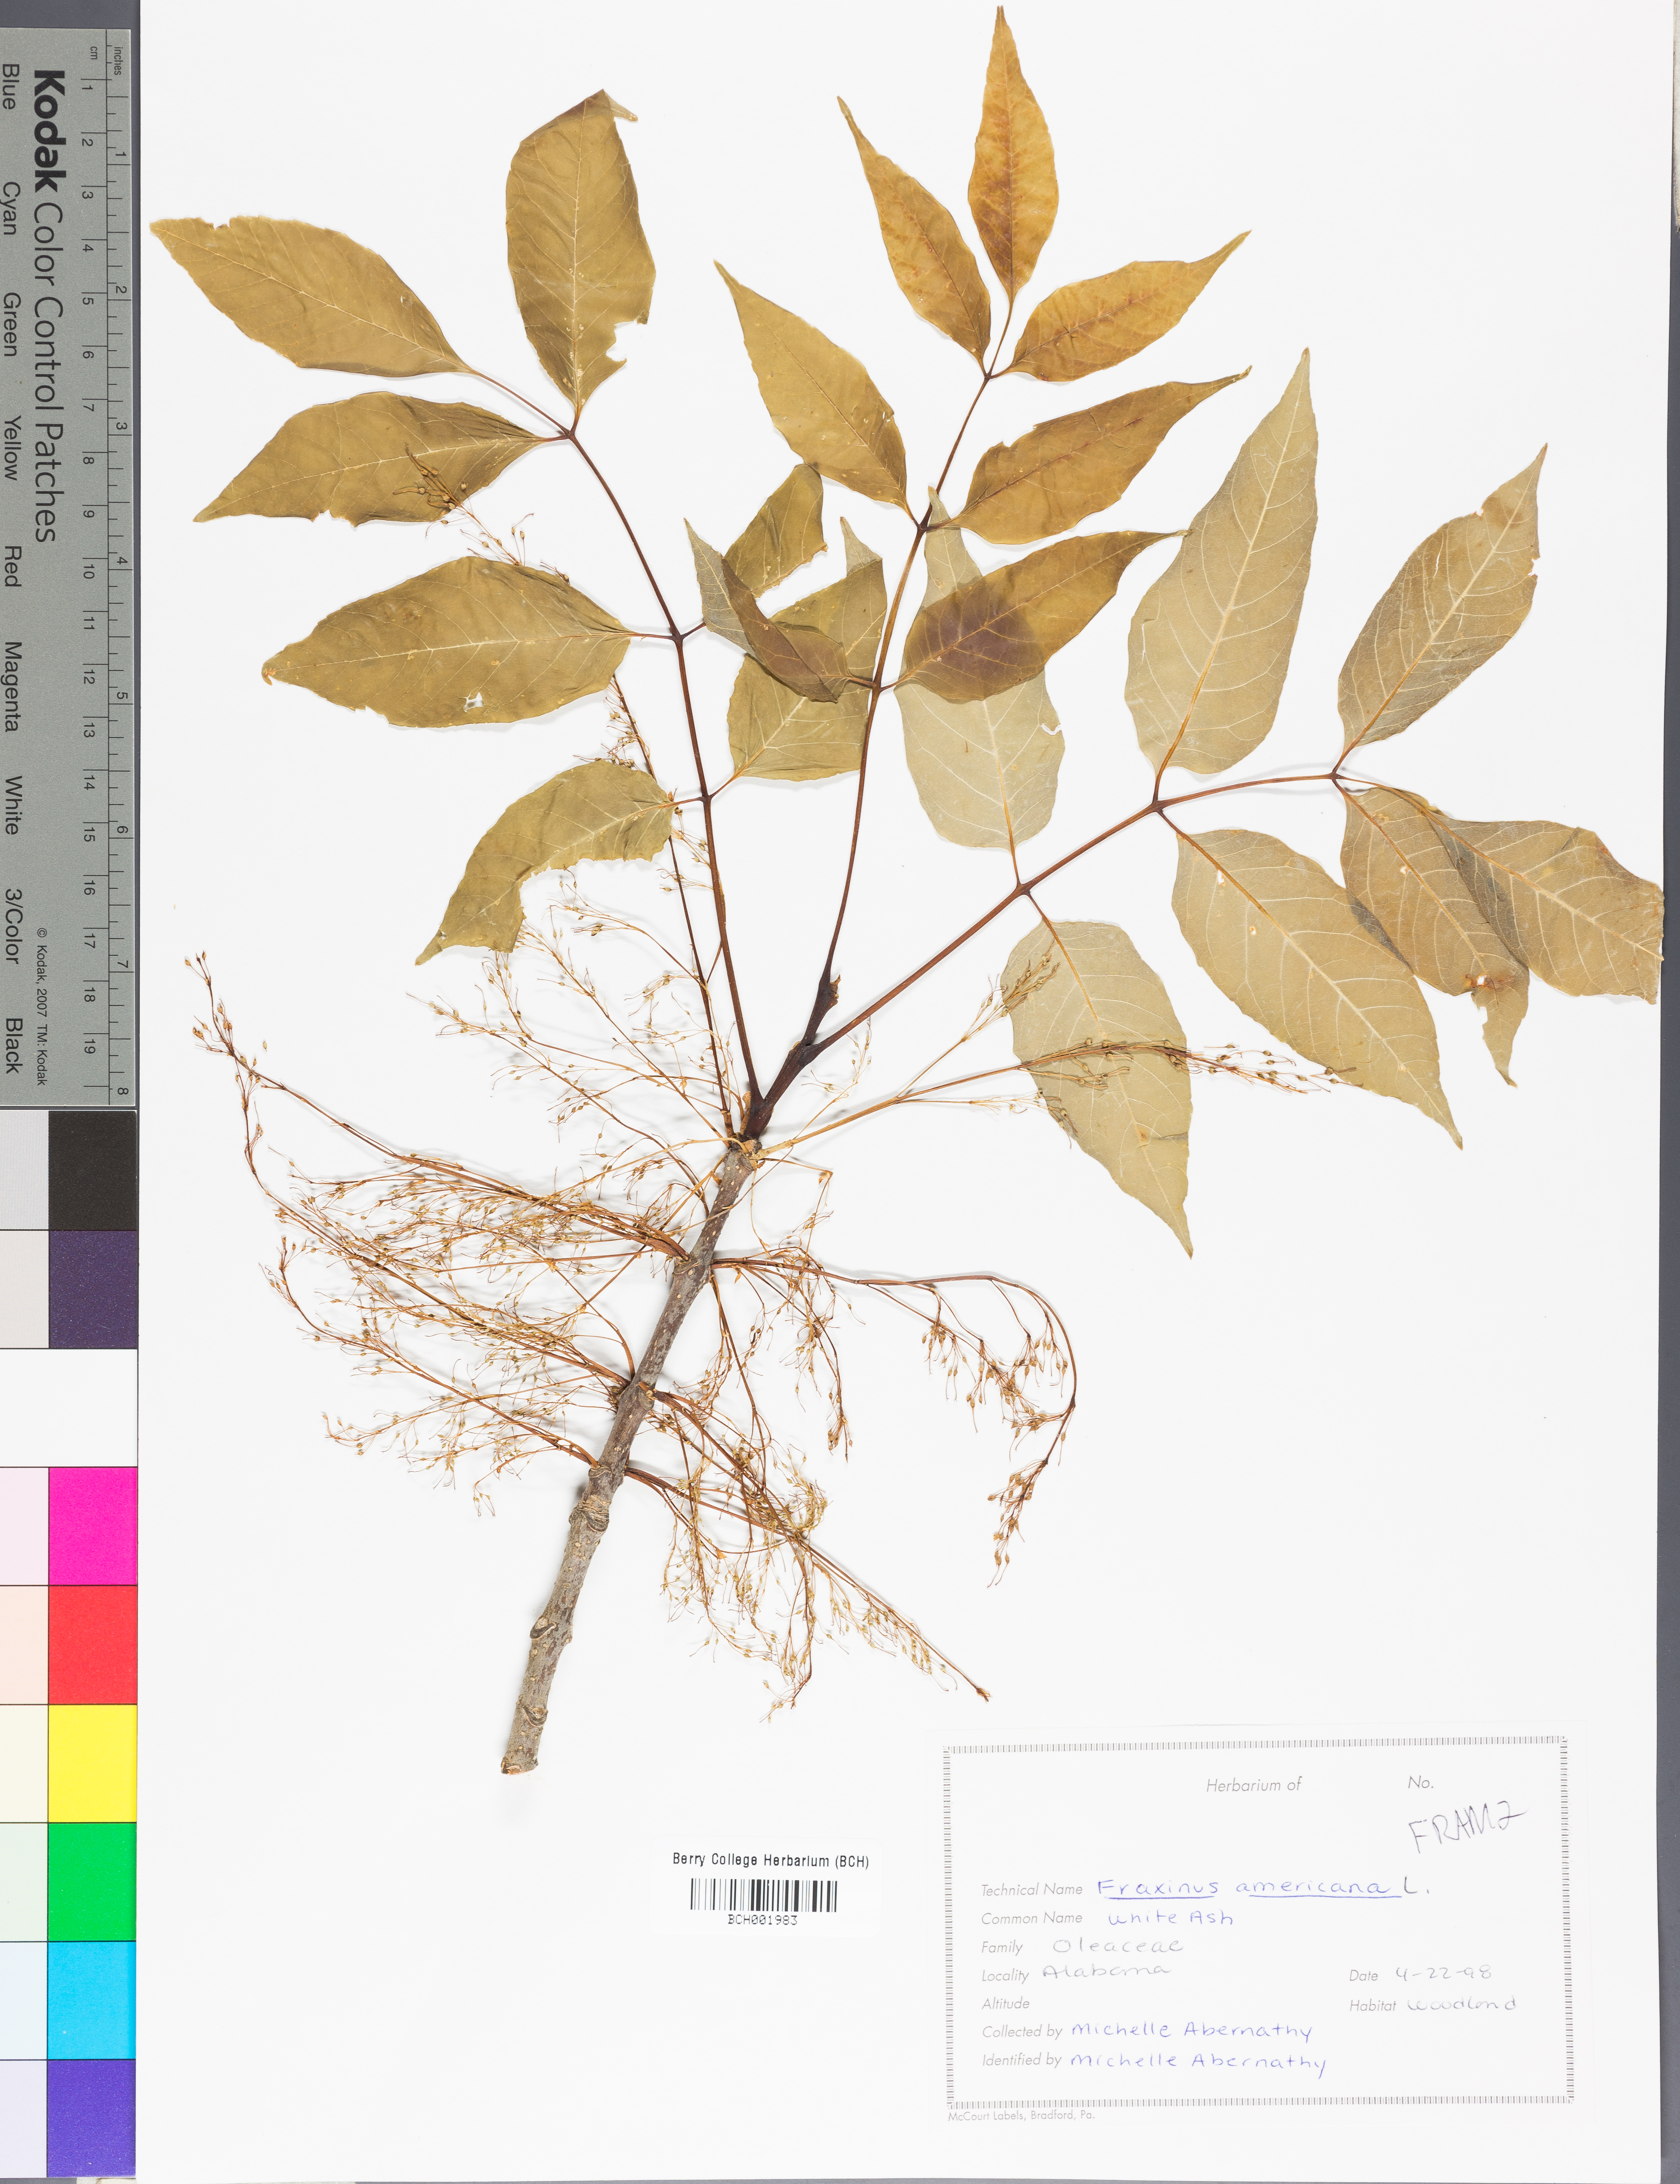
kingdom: Plantae
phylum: Tracheophyta
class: Magnoliopsida
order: Lamiales
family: Oleaceae
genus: Fraxinus
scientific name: Fraxinus americana
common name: White ash
